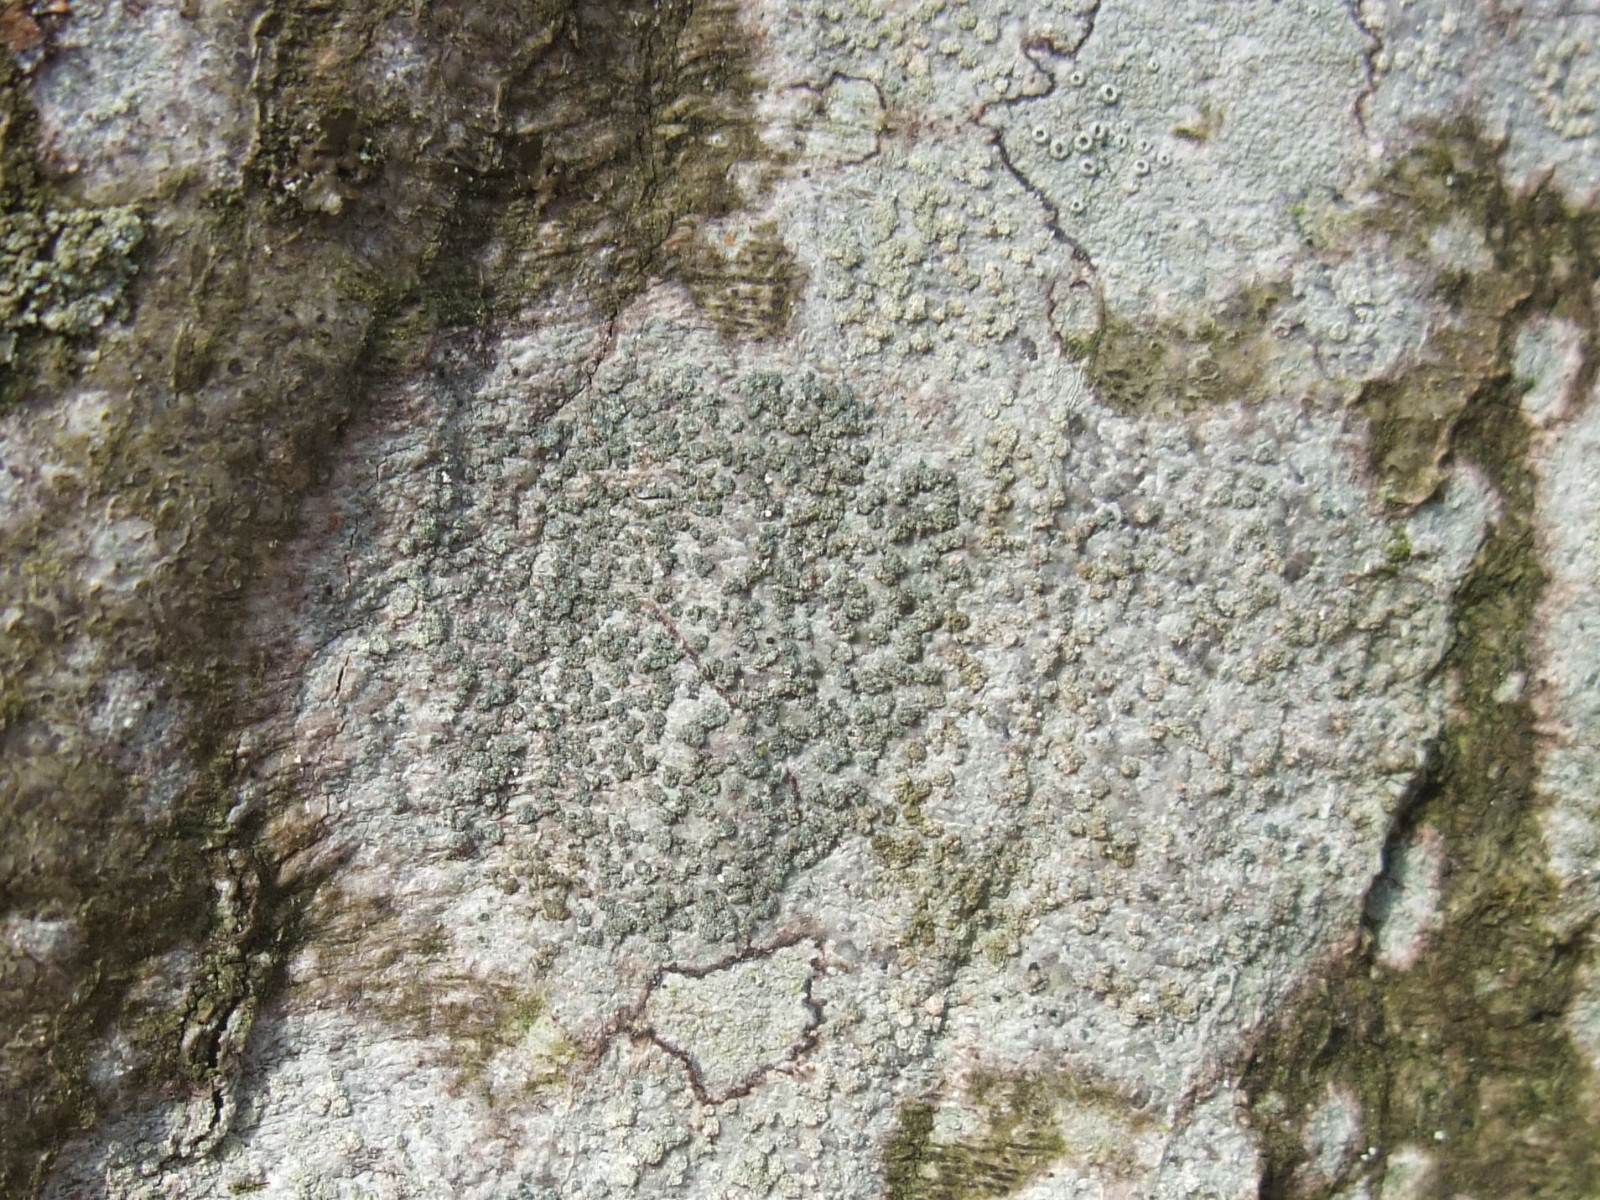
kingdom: Fungi
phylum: Ascomycota
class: Lecanoromycetes
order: Caliciales
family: Caliciaceae
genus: Buellia
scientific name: Buellia griseovirens
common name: grågrøn sortskivelav
